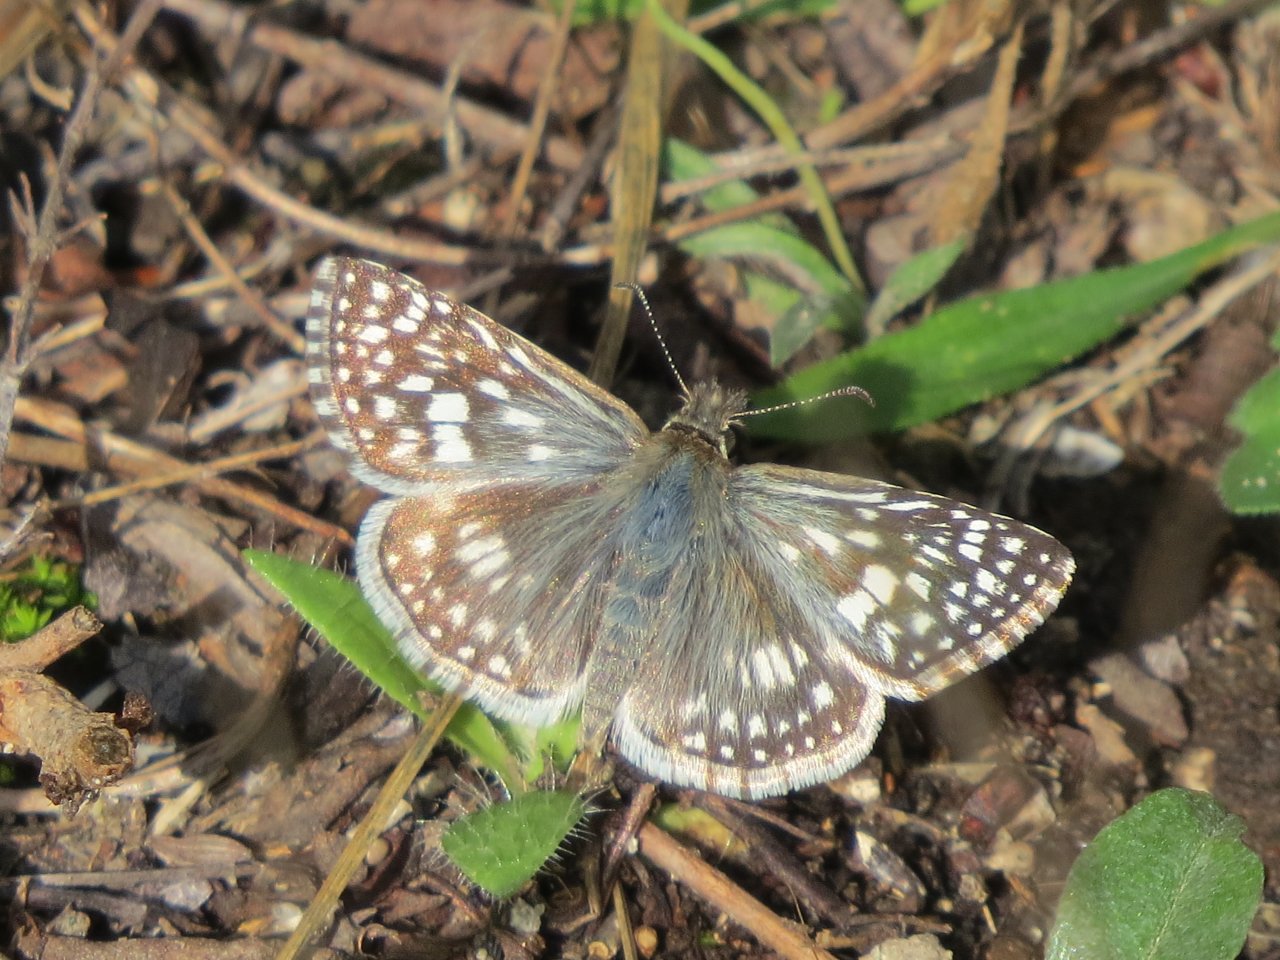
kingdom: Animalia
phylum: Arthropoda
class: Insecta
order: Lepidoptera
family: Hesperiidae
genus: Pyrgus
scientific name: Pyrgus communis
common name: Common Checkered-Skipper
